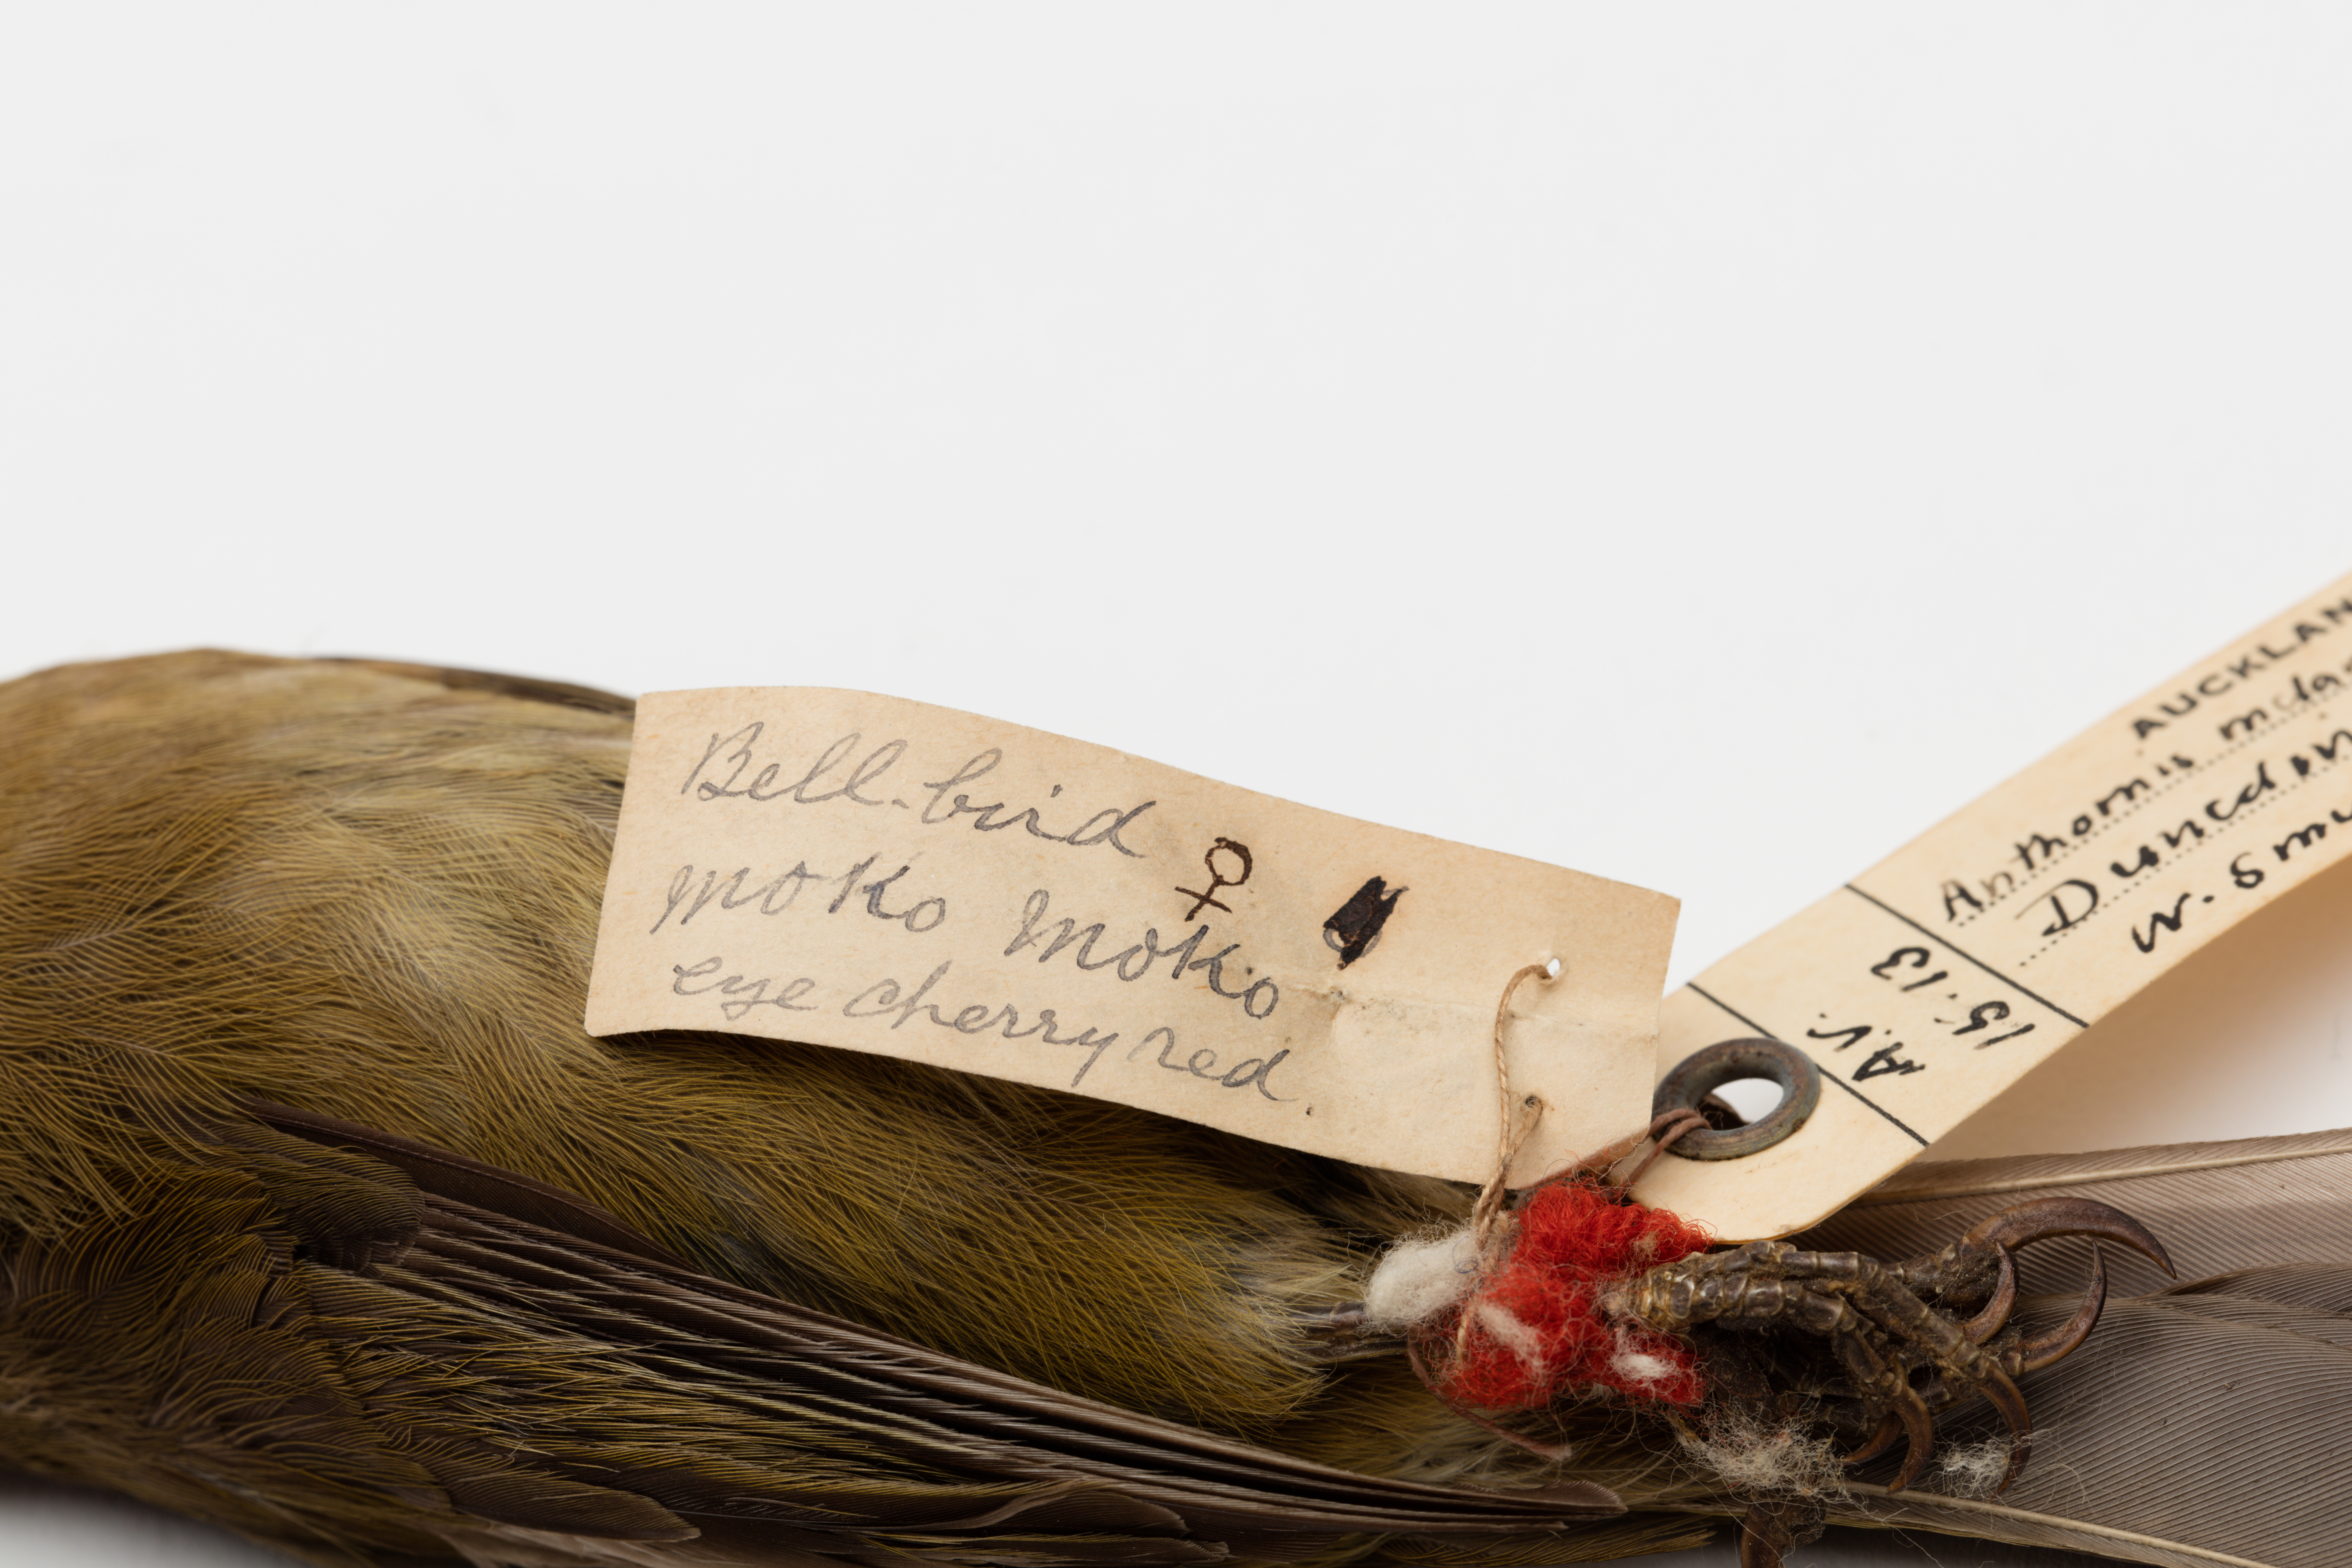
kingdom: Animalia
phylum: Chordata
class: Aves
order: Passeriformes
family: Meliphagidae
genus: Anthornis
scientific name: Anthornis melanura
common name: New zealand bellbird
